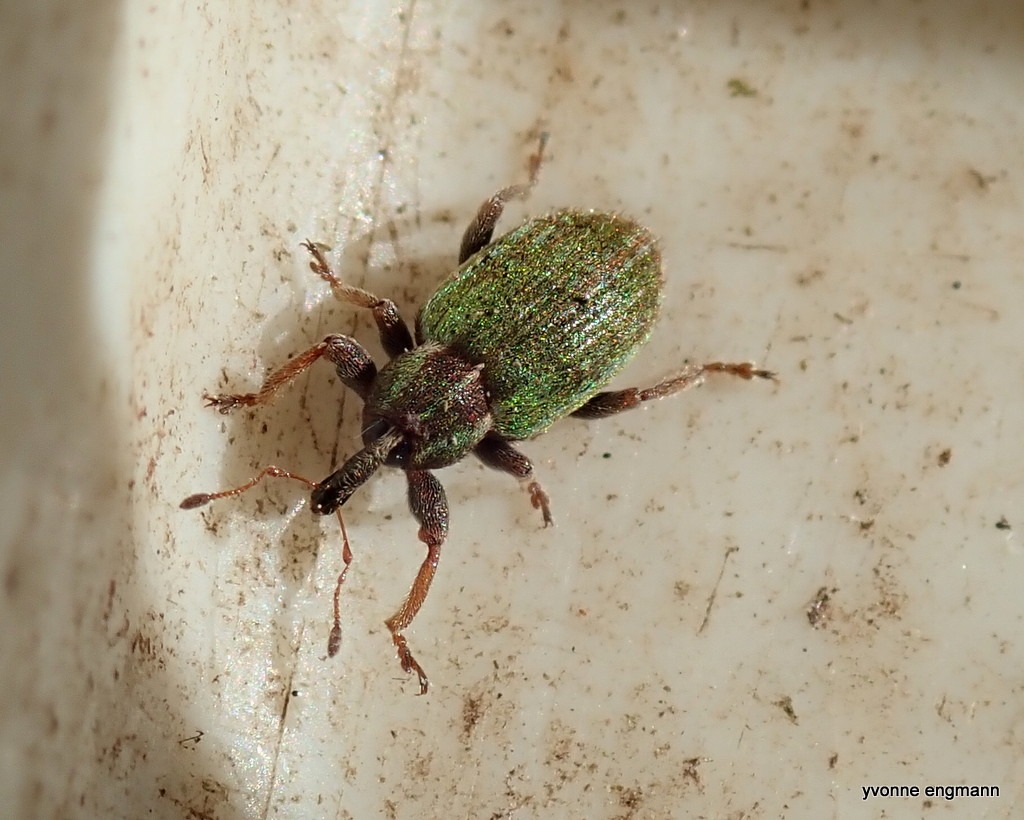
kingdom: Animalia
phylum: Arthropoda
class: Insecta
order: Coleoptera
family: Curculionidae
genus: Hypera
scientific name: Hypera nigrirostris
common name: Kløvergnaver
